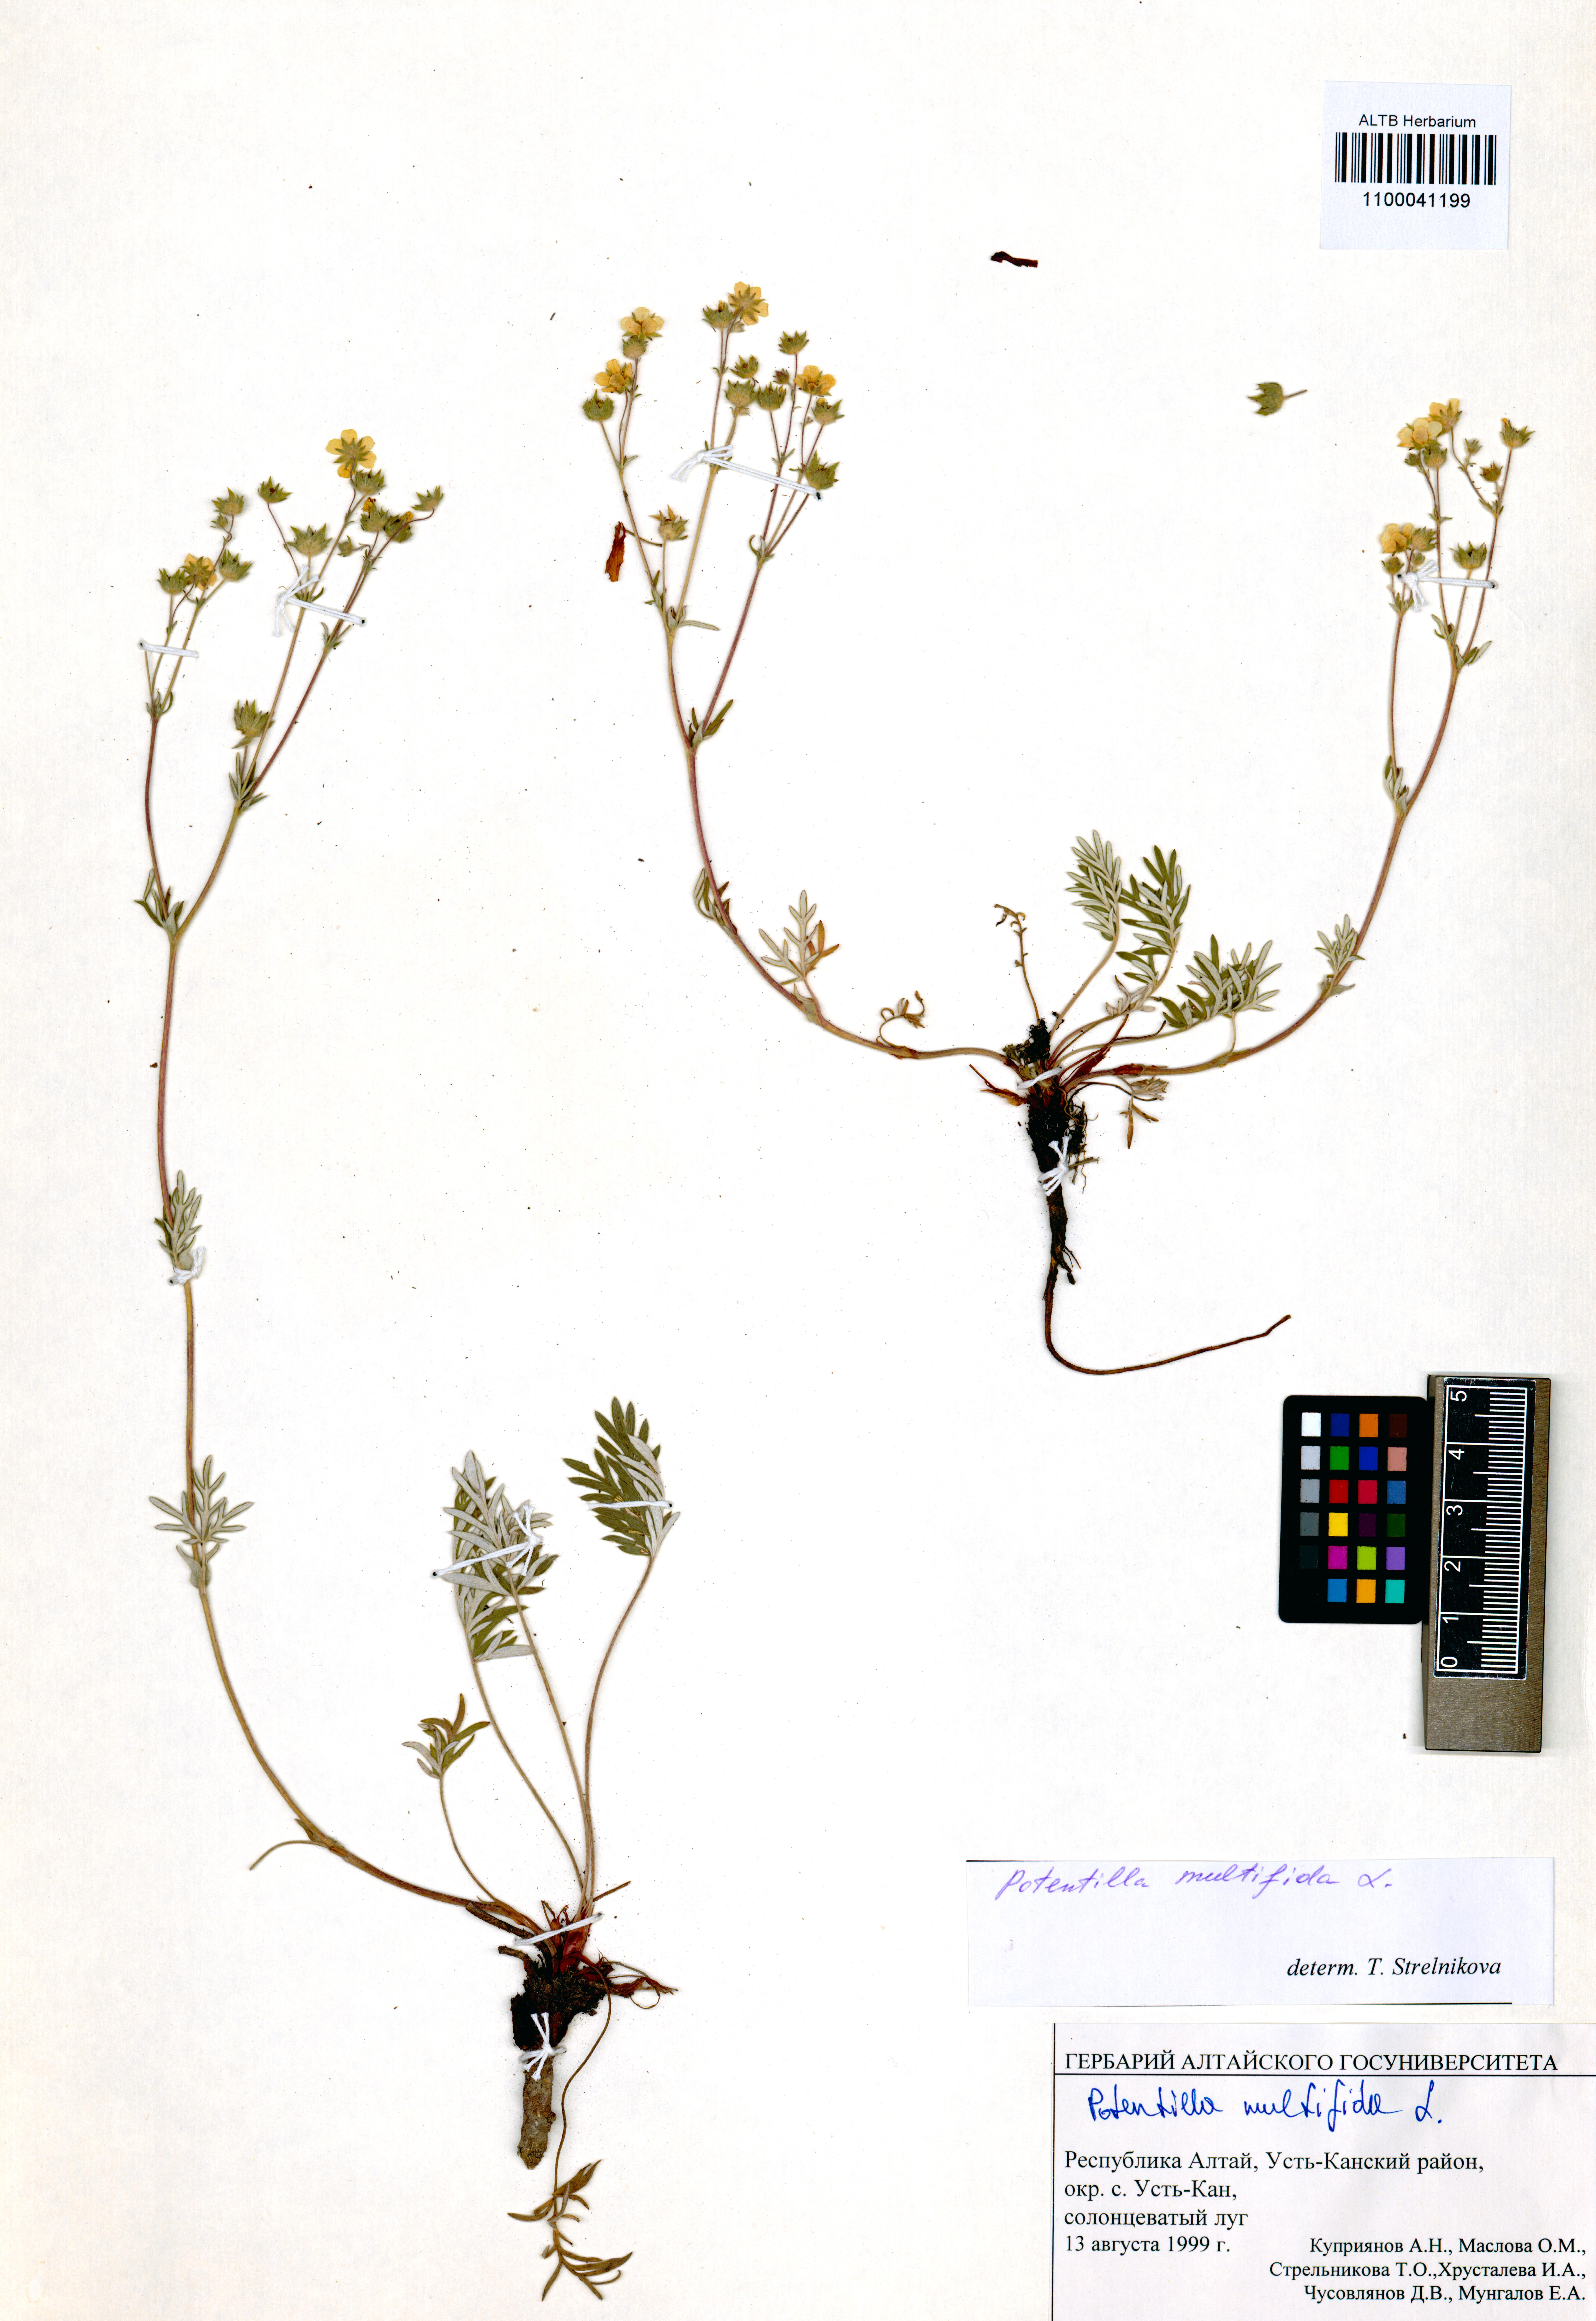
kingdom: Plantae
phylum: Tracheophyta
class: Magnoliopsida
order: Rosales
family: Rosaceae
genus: Potentilla
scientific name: Potentilla multifida
